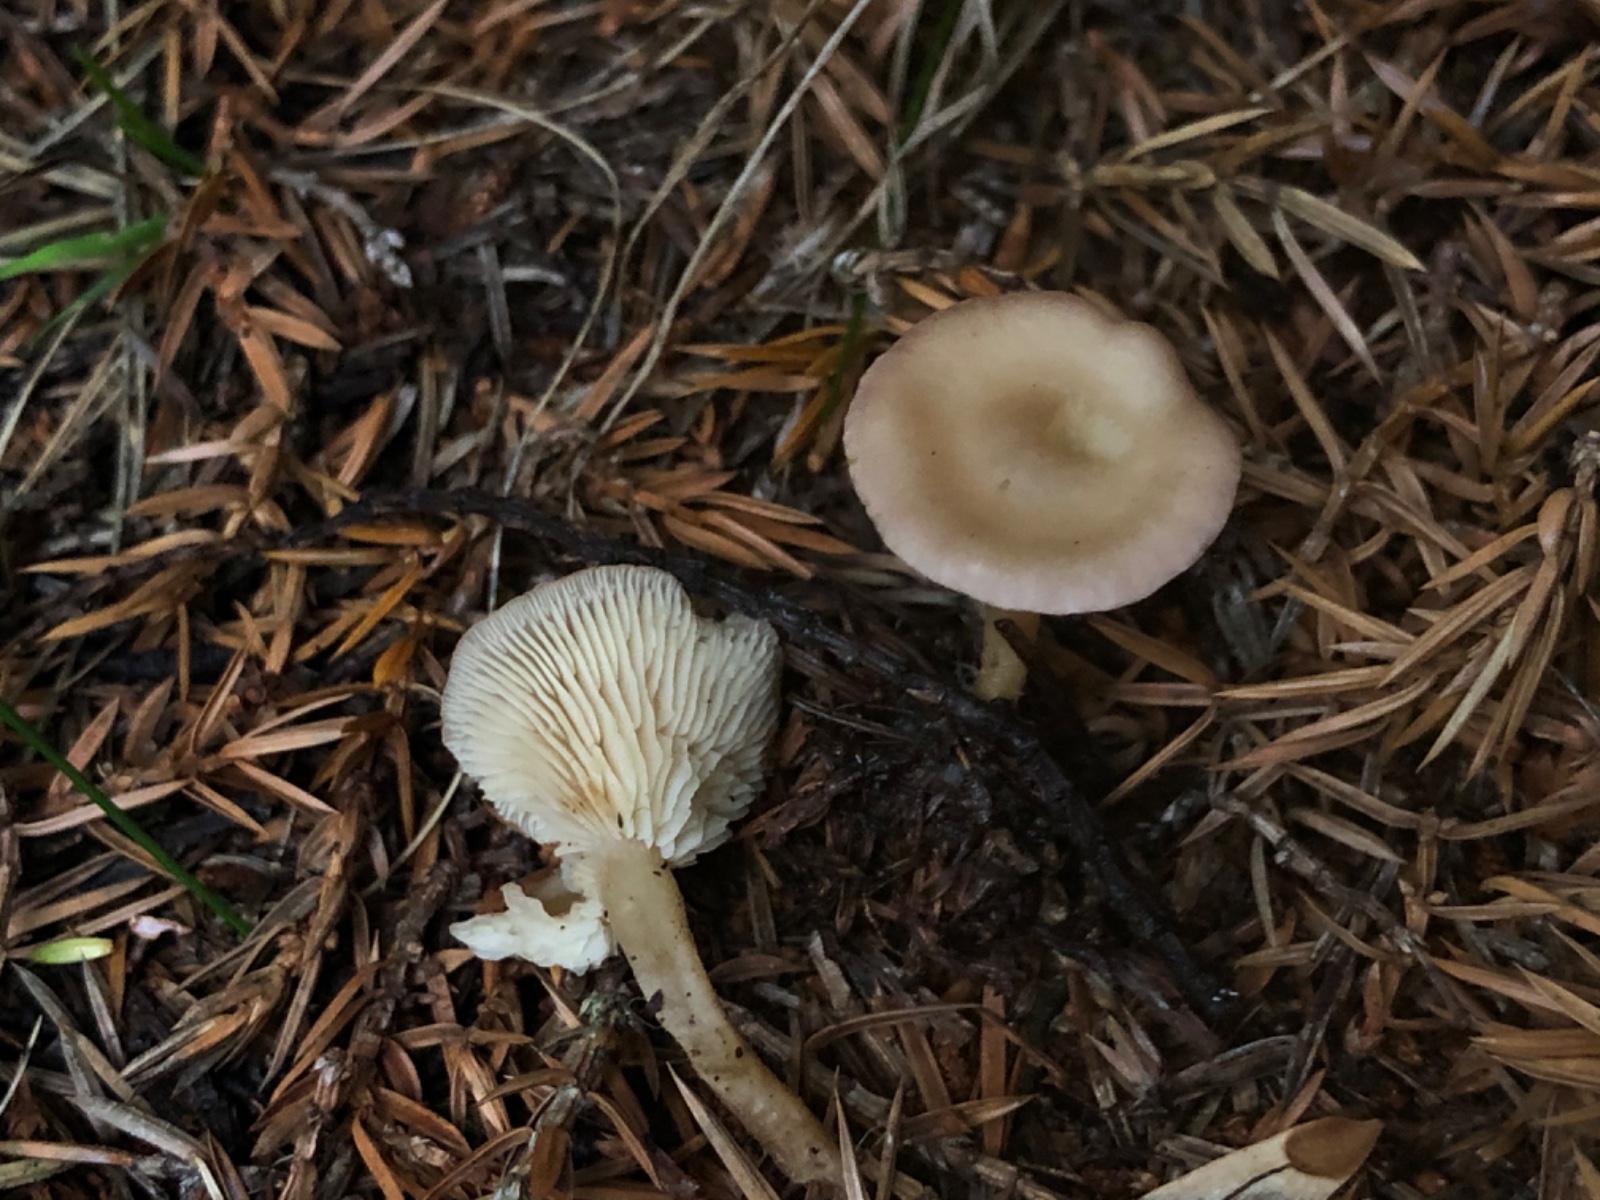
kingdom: Fungi
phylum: Basidiomycota
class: Agaricomycetes
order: Agaricales
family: Tricholomataceae
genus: Clitocybe
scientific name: Clitocybe
